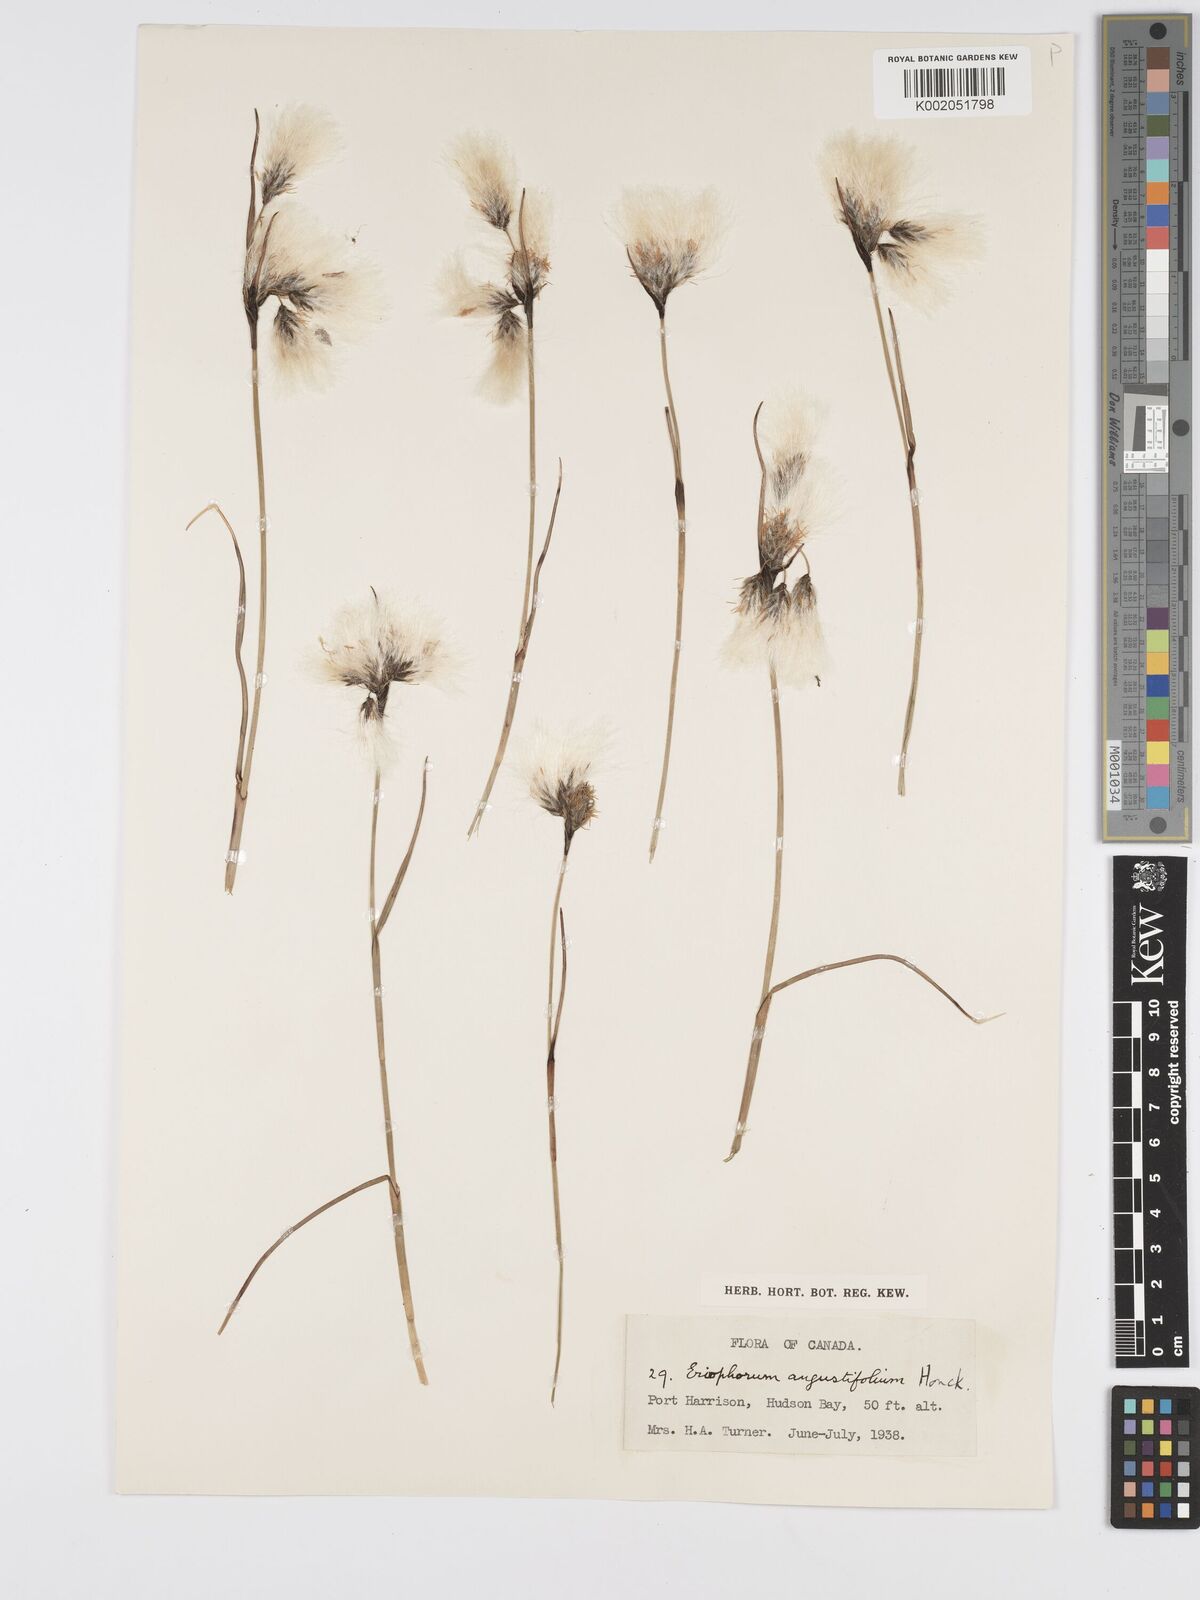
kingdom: Plantae
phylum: Tracheophyta
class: Liliopsida
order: Poales
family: Cyperaceae
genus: Eriophorum
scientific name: Eriophorum angustifolium
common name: Common cottongrass
